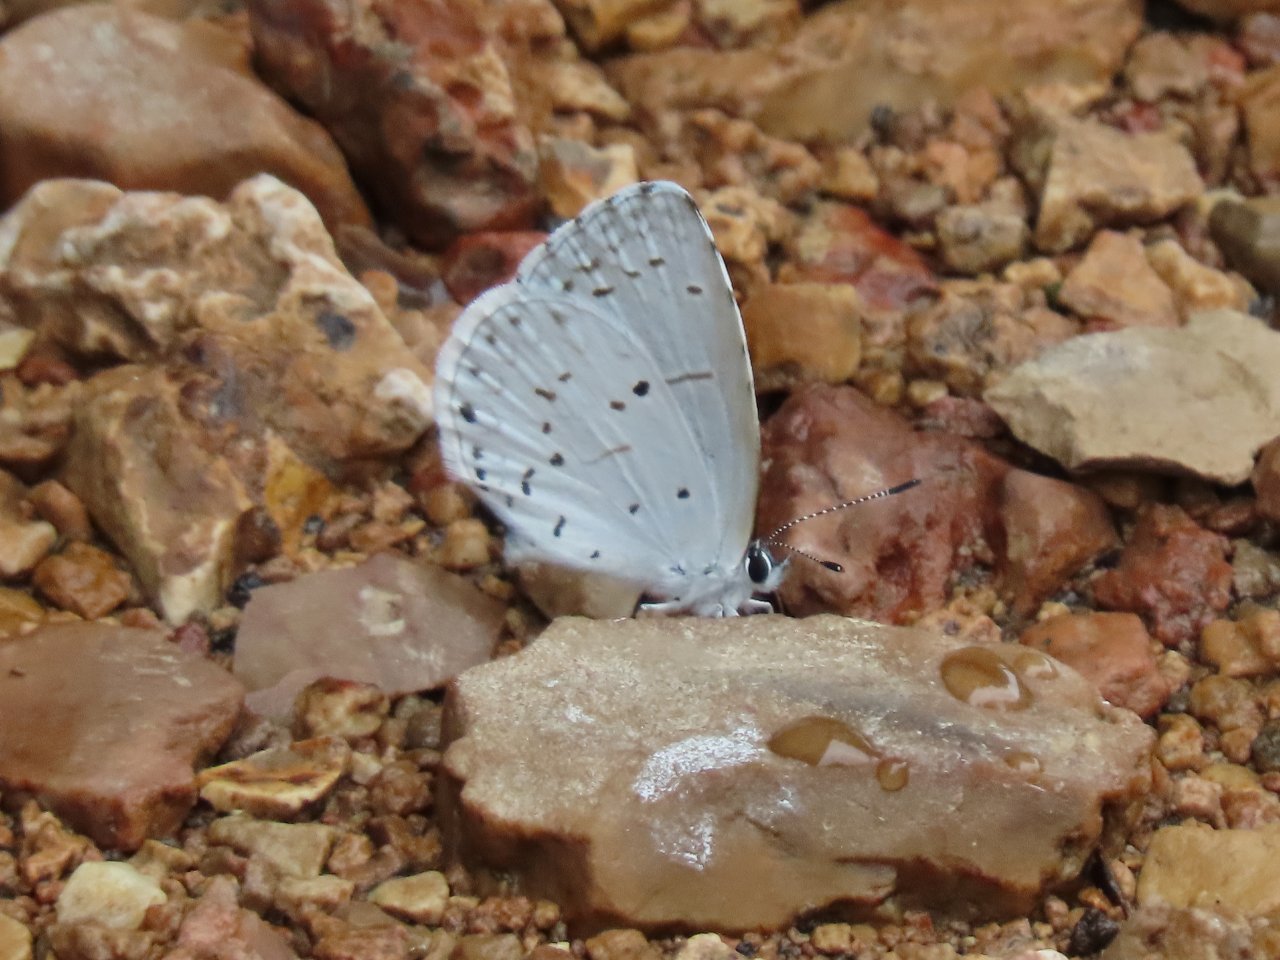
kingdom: Animalia
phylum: Arthropoda
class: Insecta
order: Lepidoptera
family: Lycaenidae
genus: Cyaniris
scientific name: Cyaniris neglecta
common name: Summer Azure
